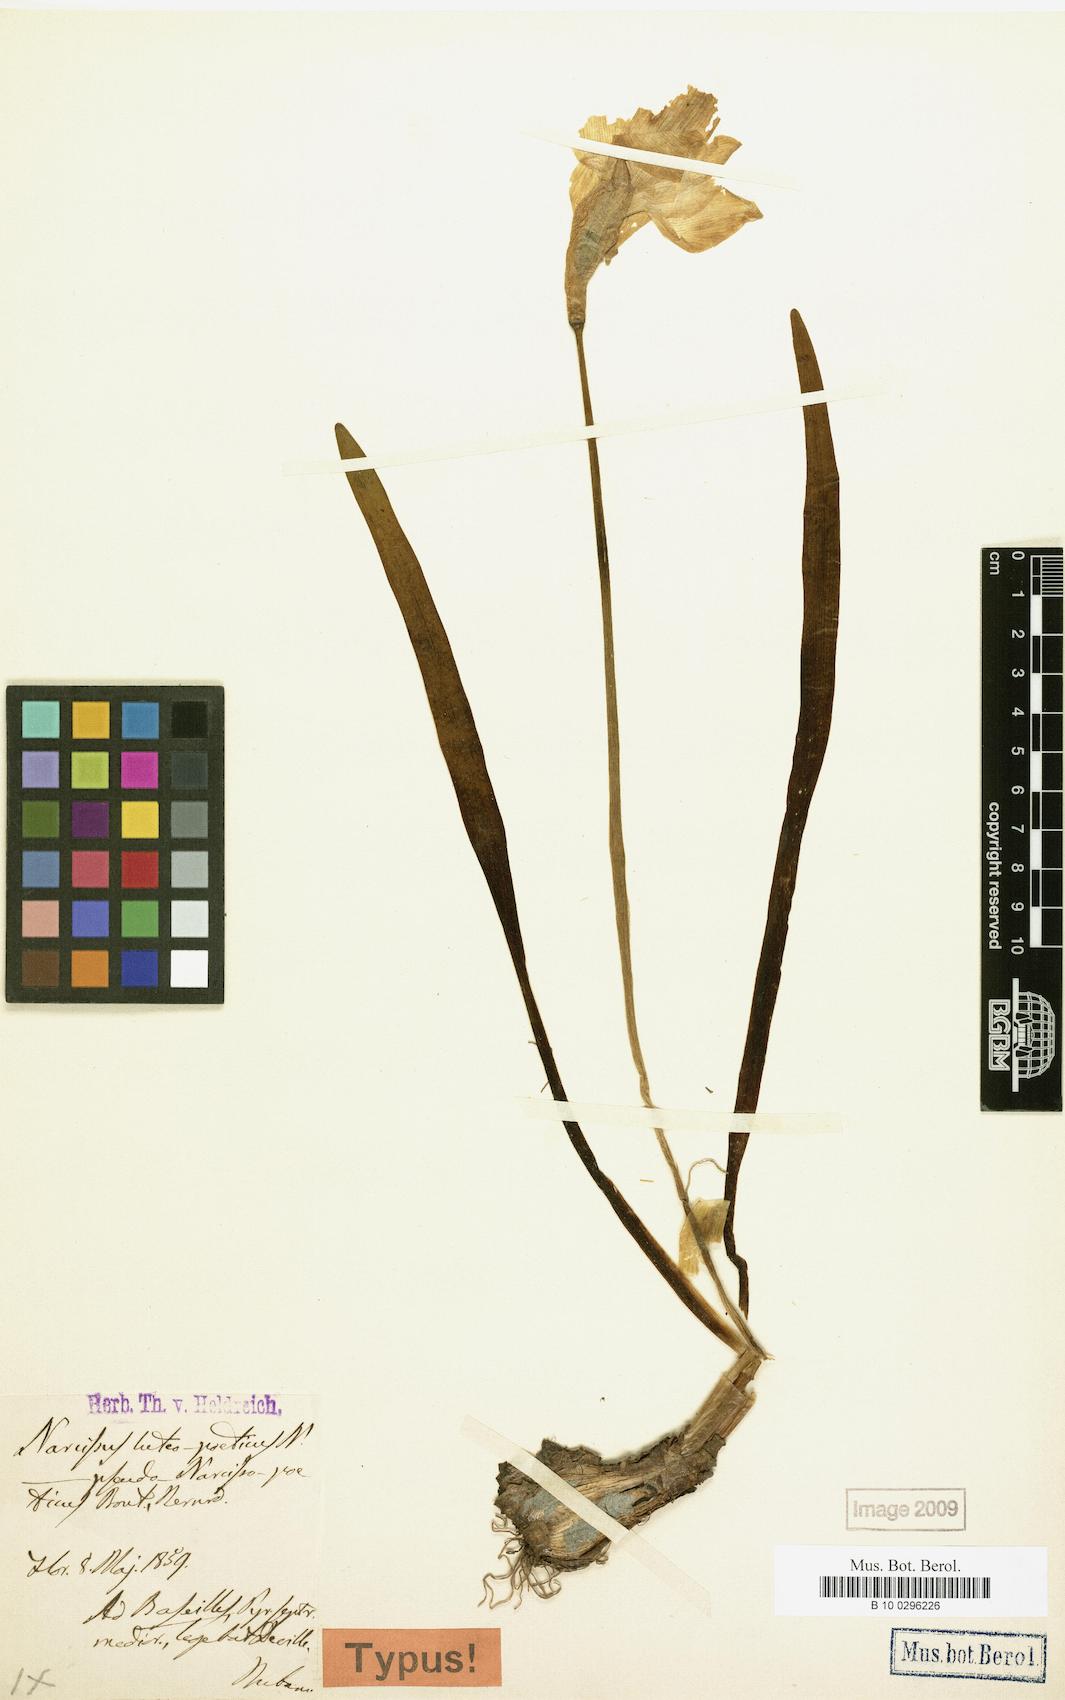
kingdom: Plantae
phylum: Tracheophyta
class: Liliopsida
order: Asparagales
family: Amaryllidaceae
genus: Narcissus
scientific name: Narcissus
